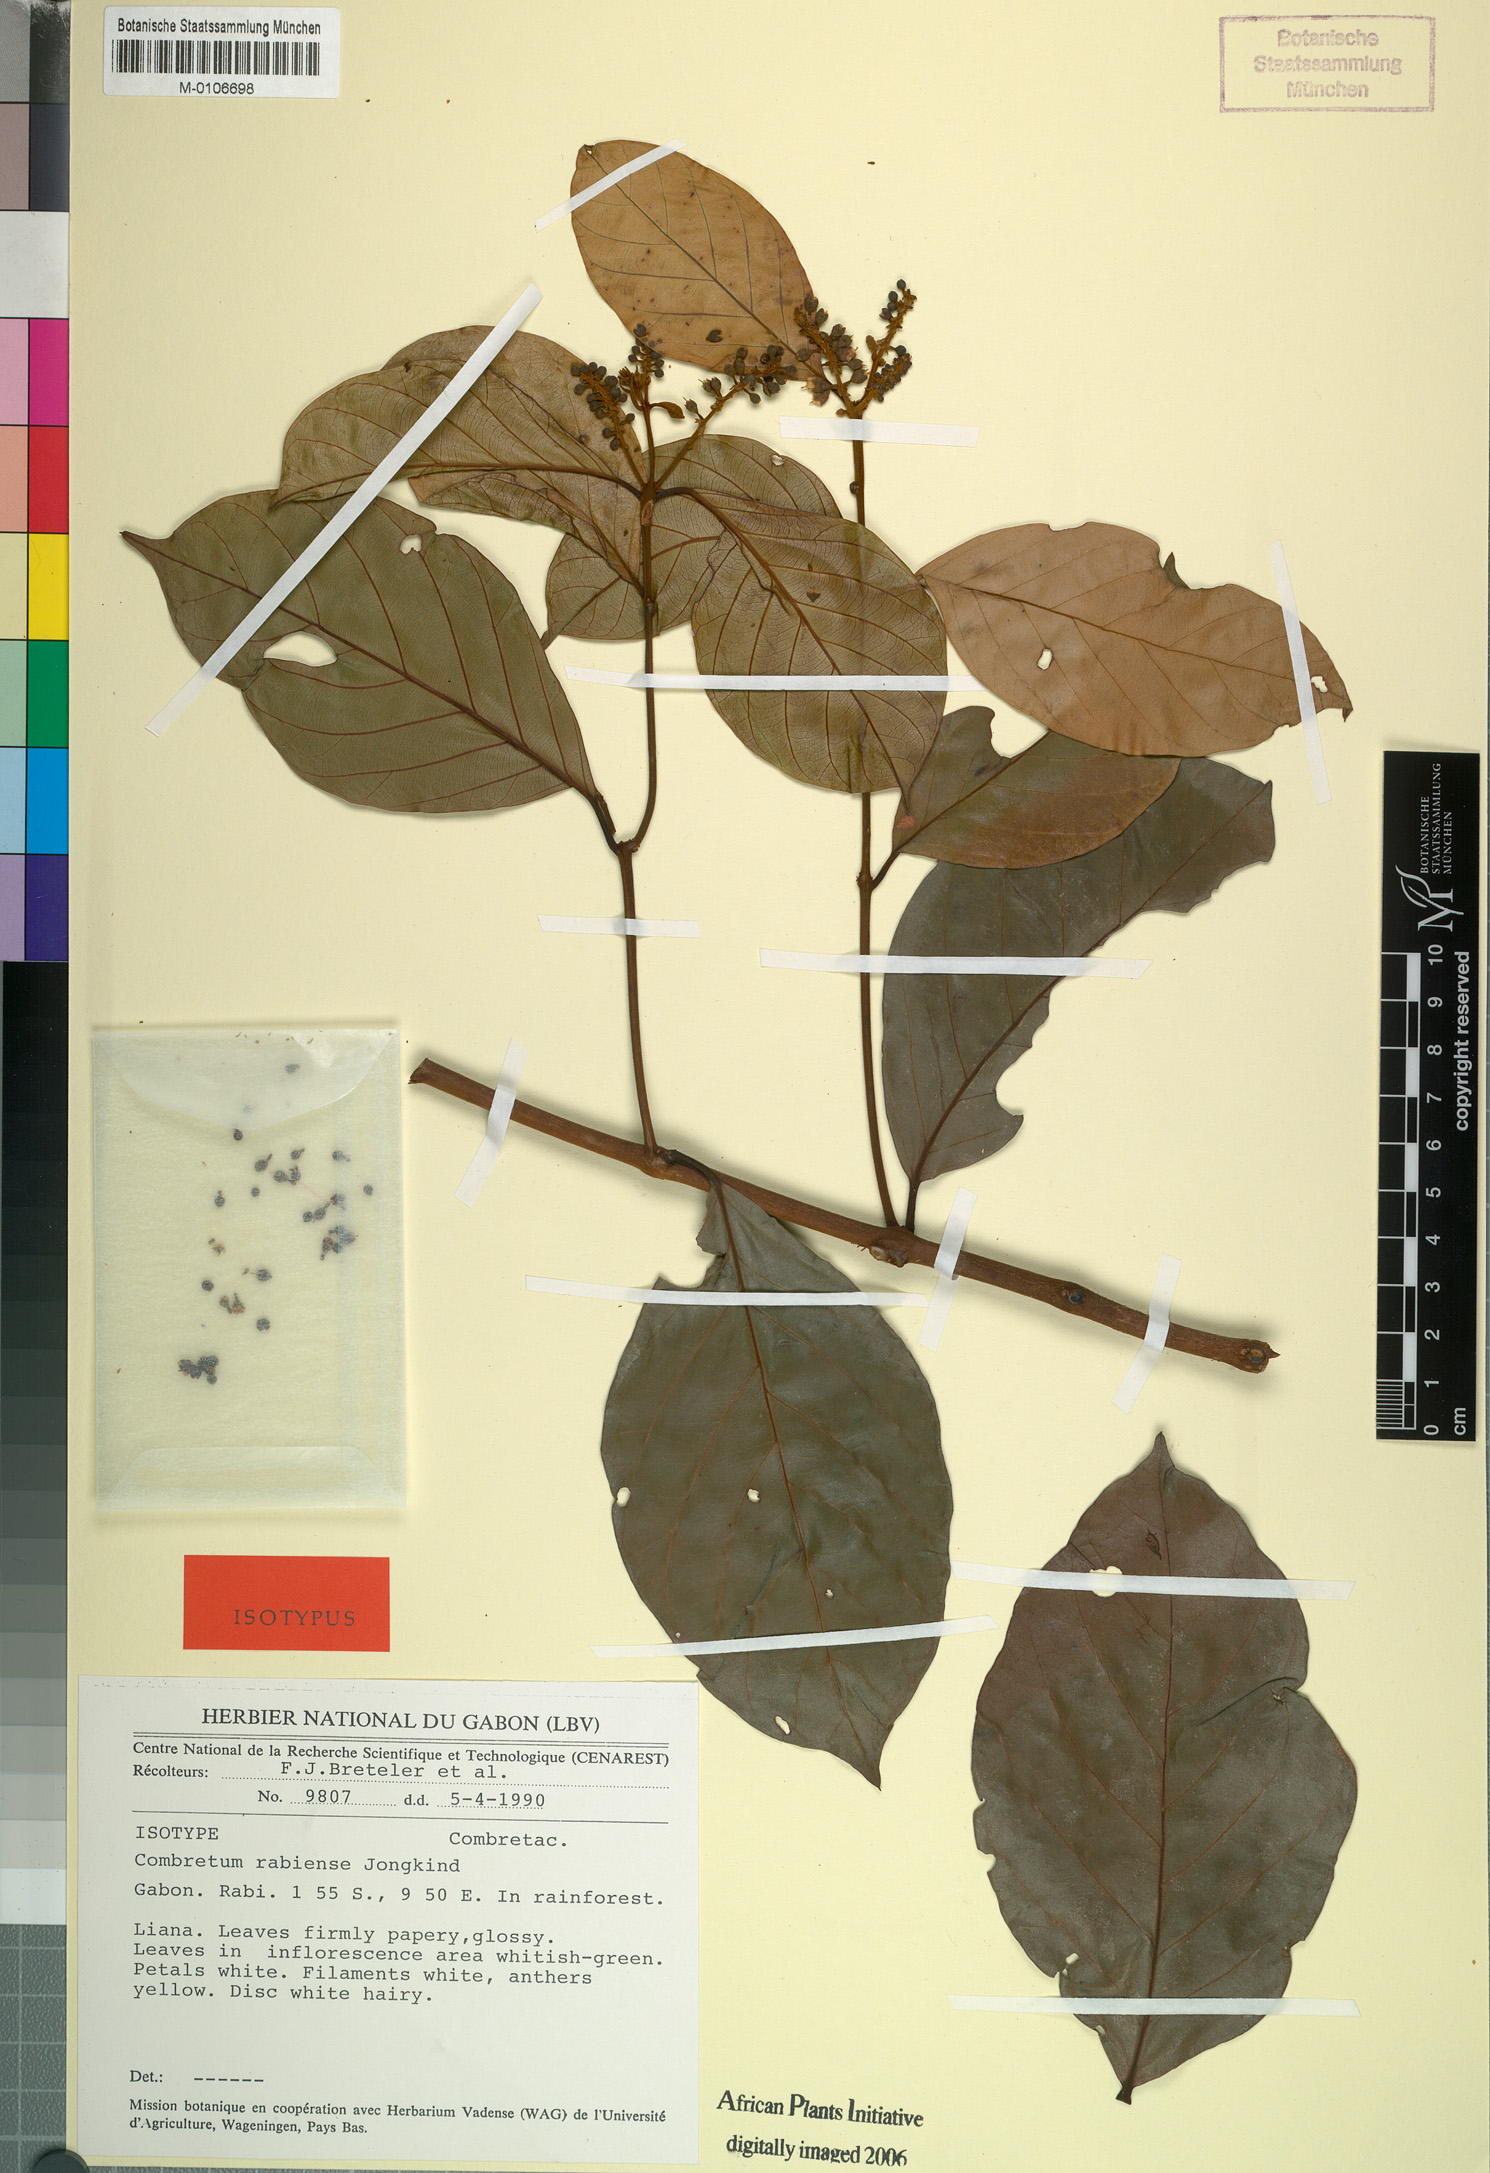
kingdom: Plantae
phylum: Tracheophyta
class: Magnoliopsida
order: Myrtales
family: Combretaceae
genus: Combretum
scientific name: Combretum rabiense
